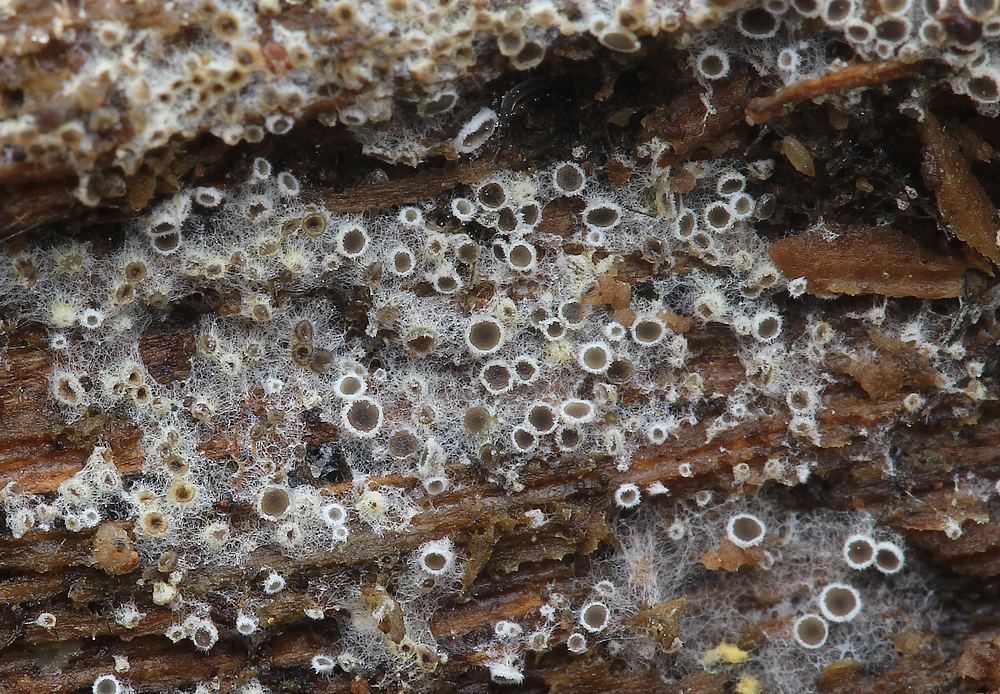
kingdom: Fungi
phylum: Ascomycota
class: Leotiomycetes
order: Helotiales
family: Arachnopezizaceae
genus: Eriopezia
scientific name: Eriopezia caesia
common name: ege-spindskive
